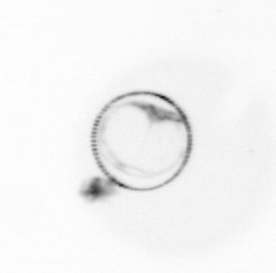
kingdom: Chromista
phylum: Myzozoa
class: Dinophyceae
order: Noctilucales
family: Noctilucaceae
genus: Noctiluca
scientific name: Noctiluca scintillans
